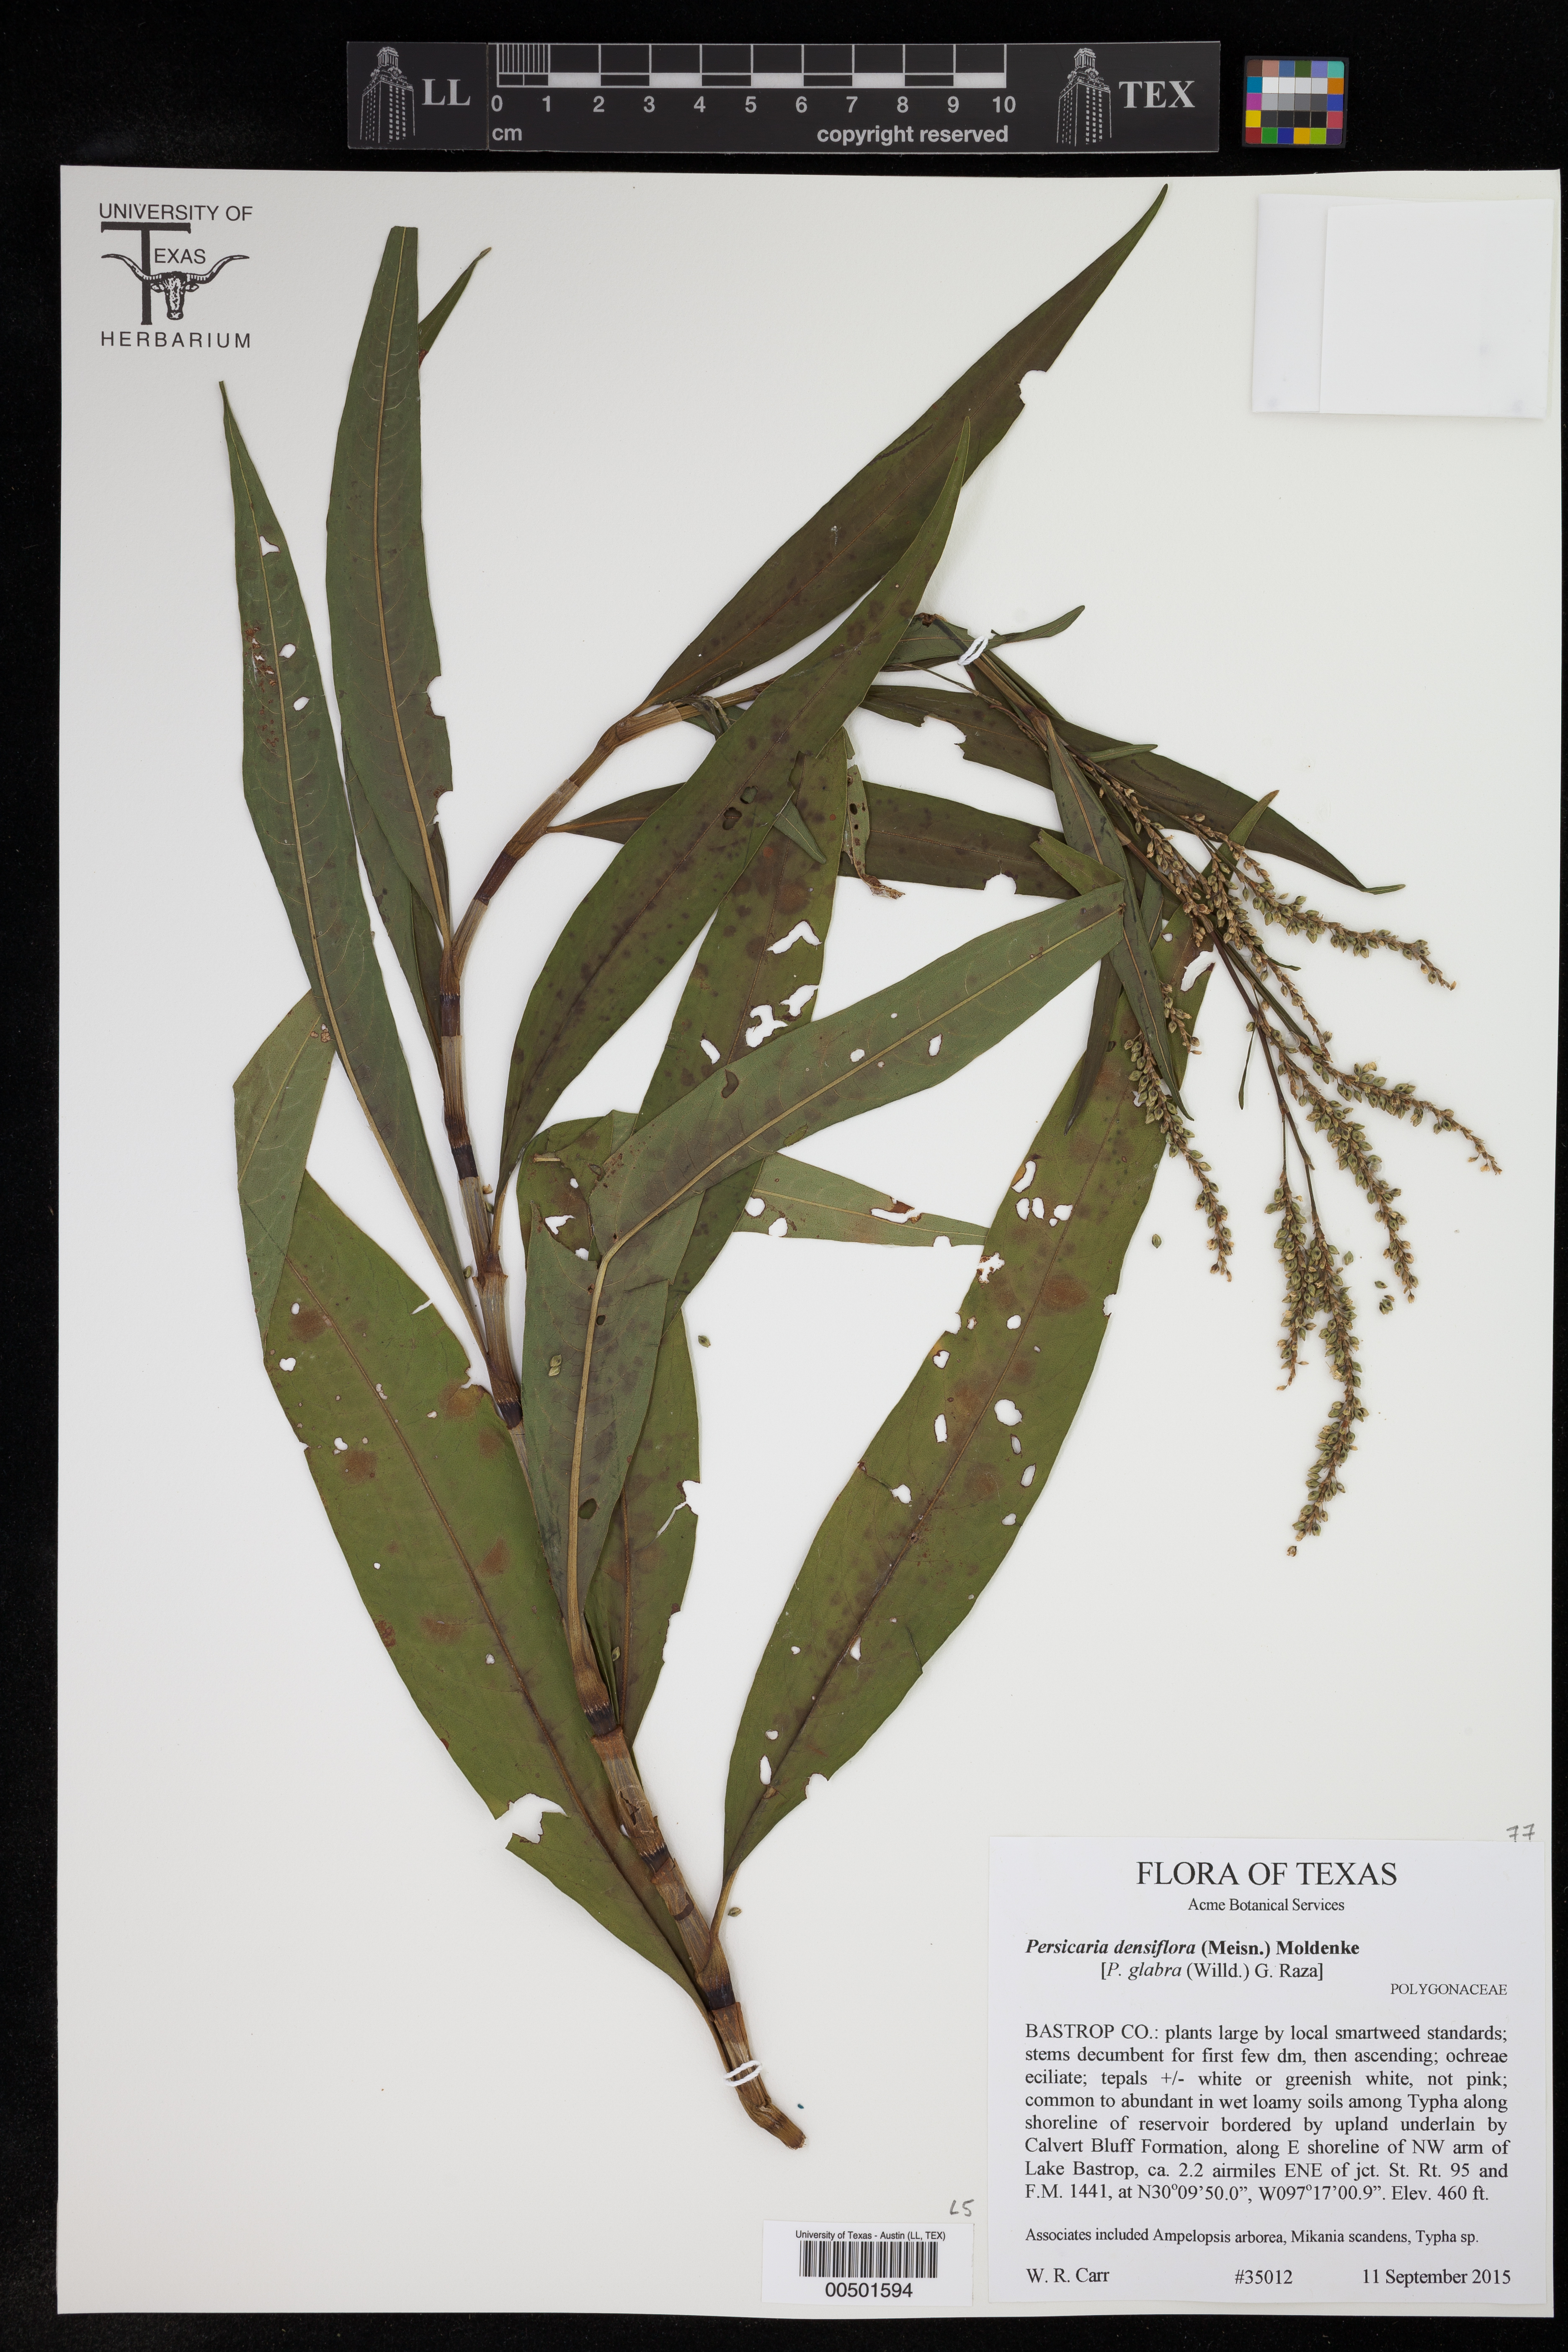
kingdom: Plantae
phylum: Tracheophyta
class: Magnoliopsida
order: Caryophyllales
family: Polygonaceae
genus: Persicaria
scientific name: Persicaria glabra
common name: Denseflower knotweed
